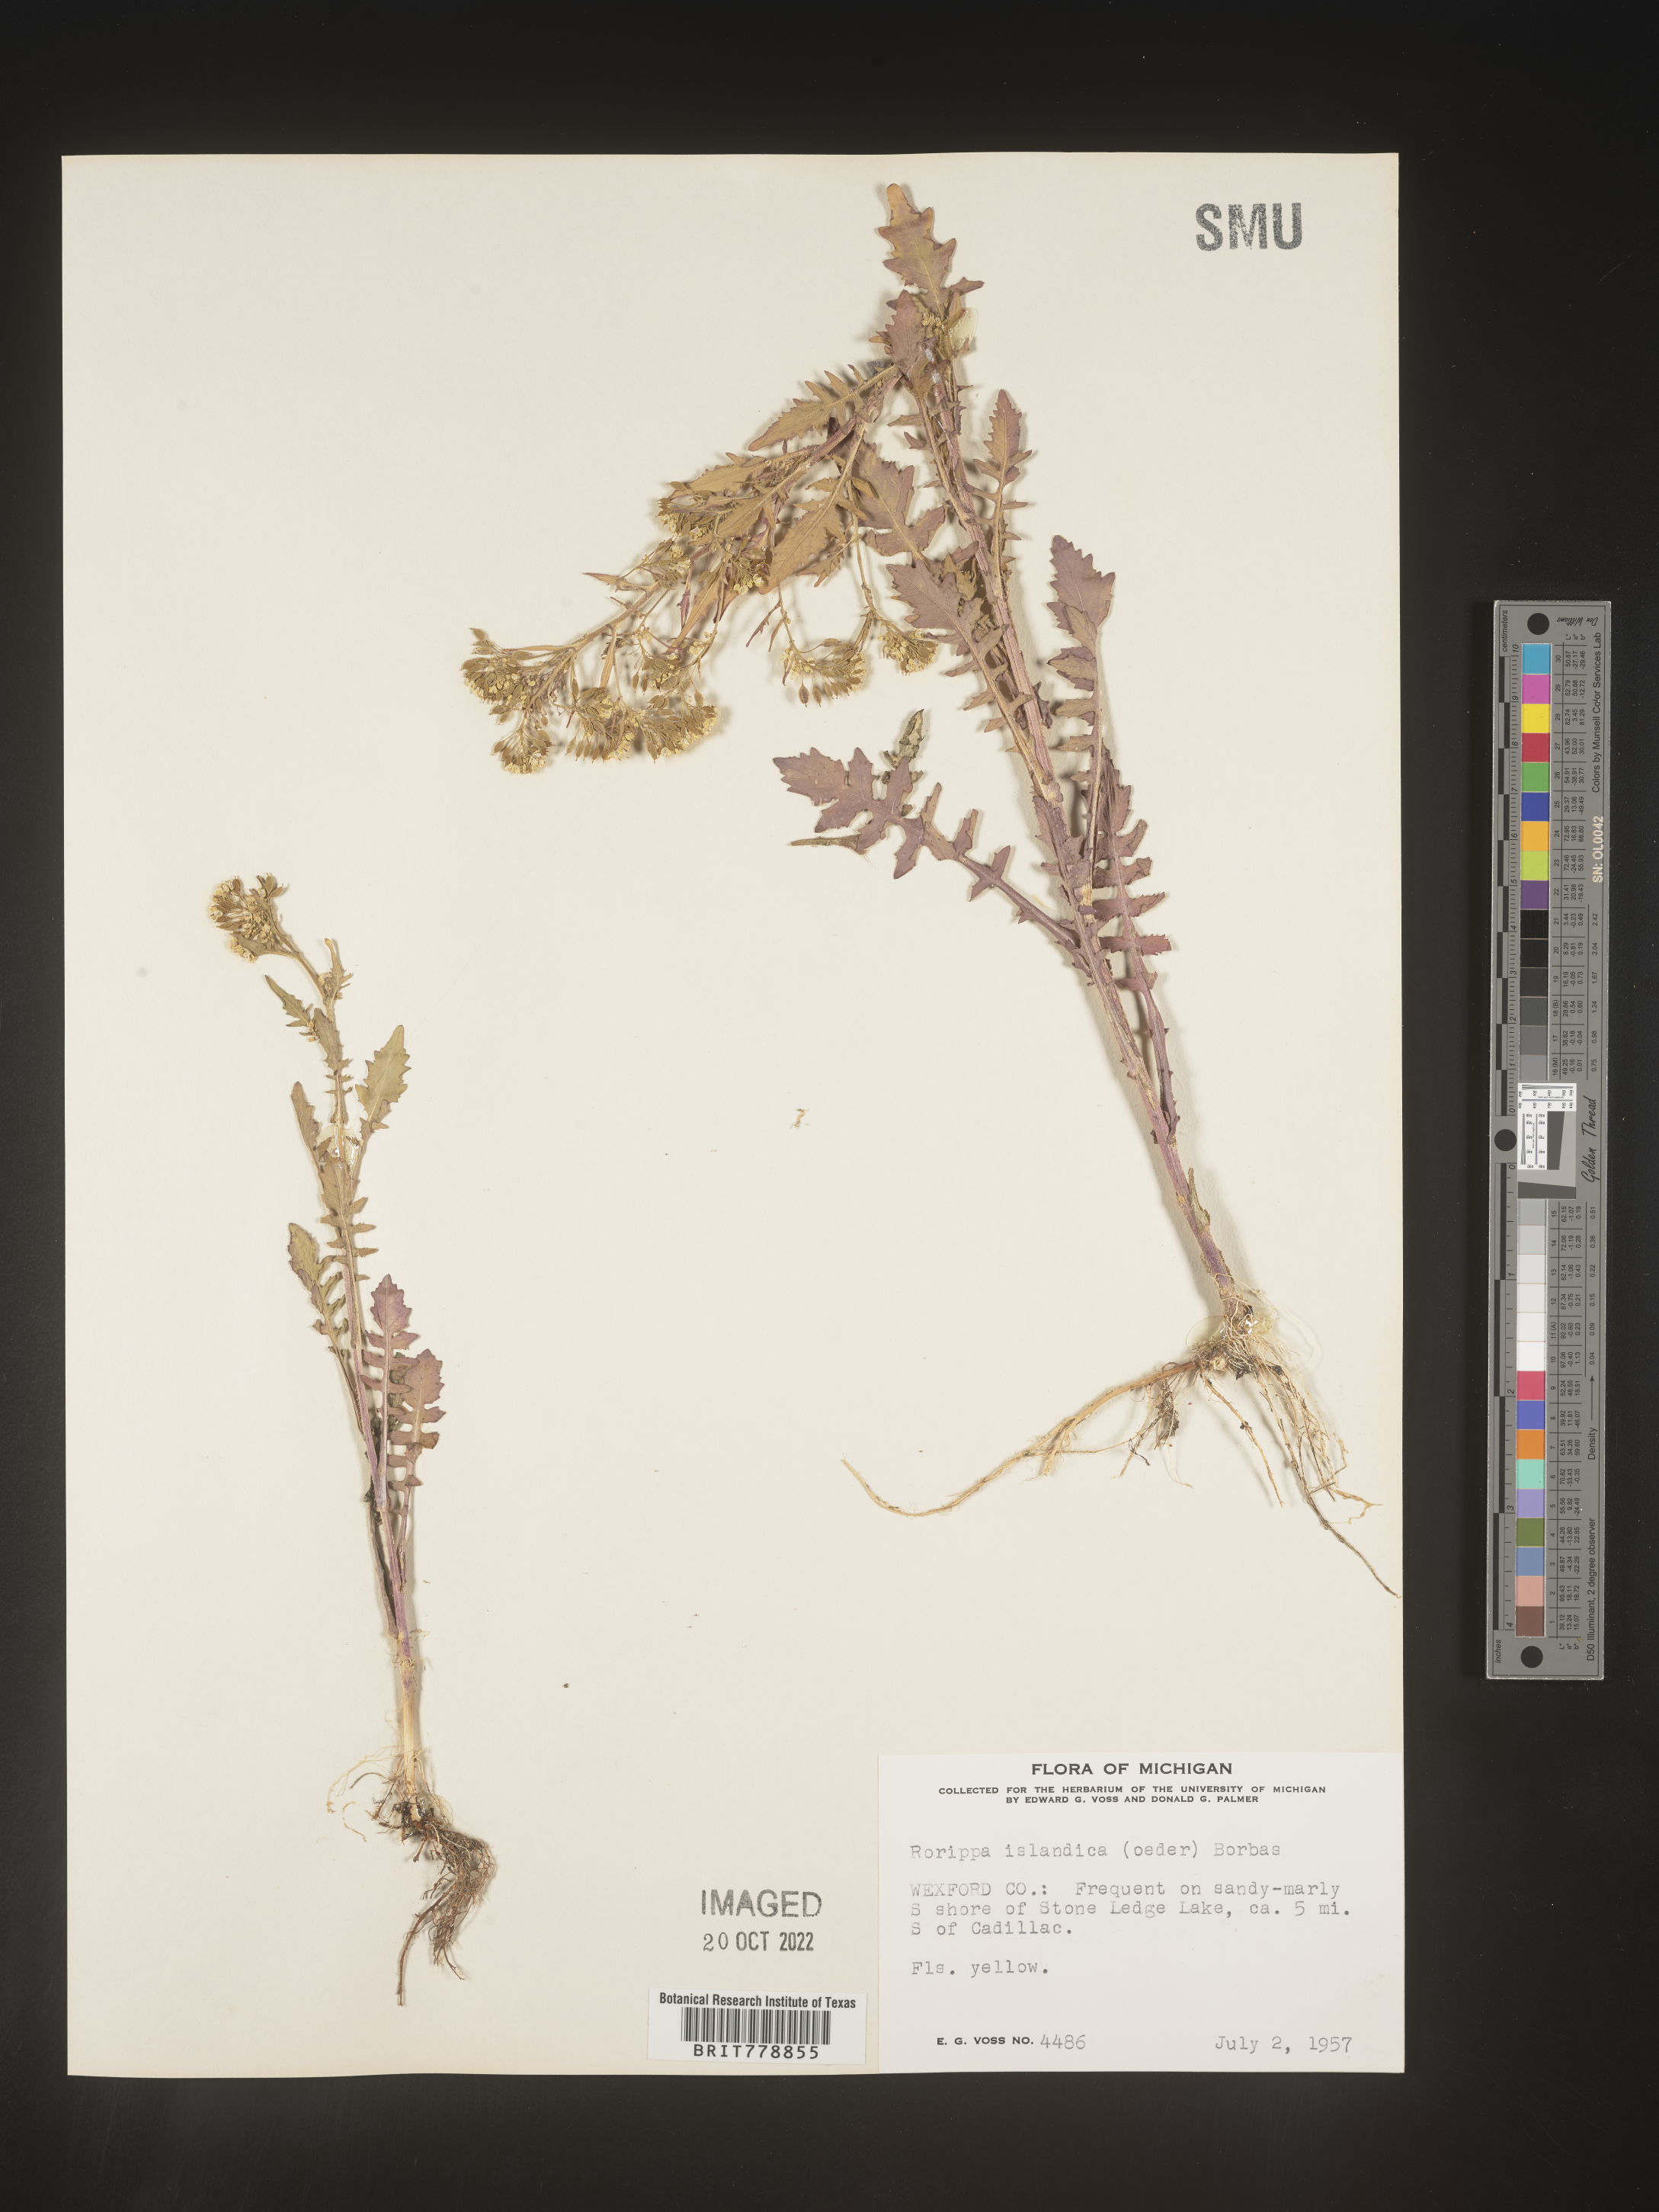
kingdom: Plantae
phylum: Tracheophyta
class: Magnoliopsida
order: Brassicales
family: Brassicaceae
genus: Rorippa
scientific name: Rorippa palustris
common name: Marsh yellow-cress
